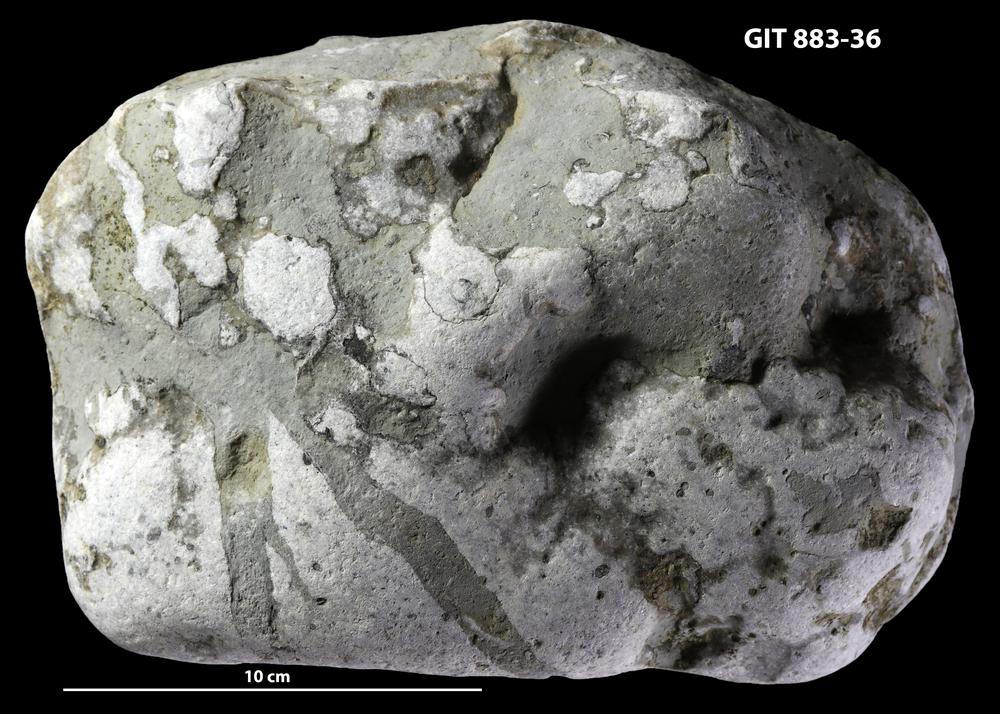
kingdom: Animalia
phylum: Porifera
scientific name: Porifera
